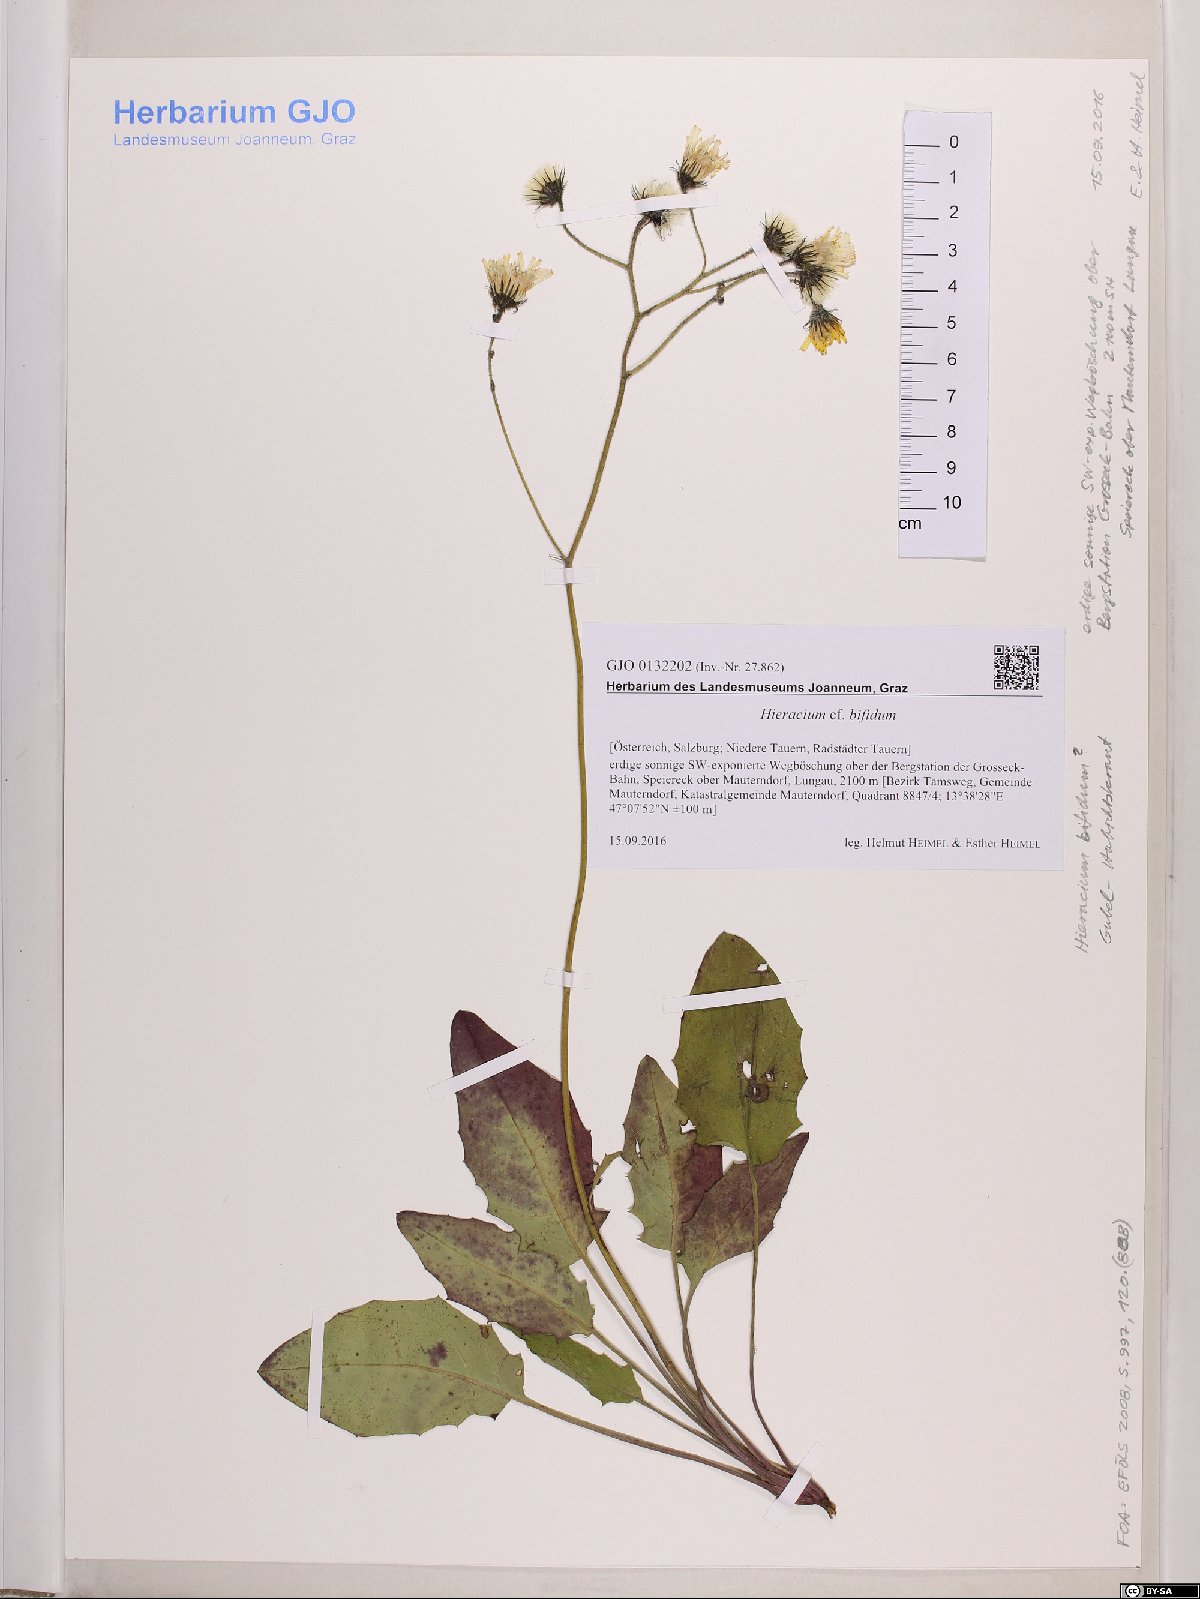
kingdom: Plantae
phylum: Tracheophyta
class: Magnoliopsida
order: Asterales
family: Asteraceae
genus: Hieracium
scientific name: Hieracium bifidum
